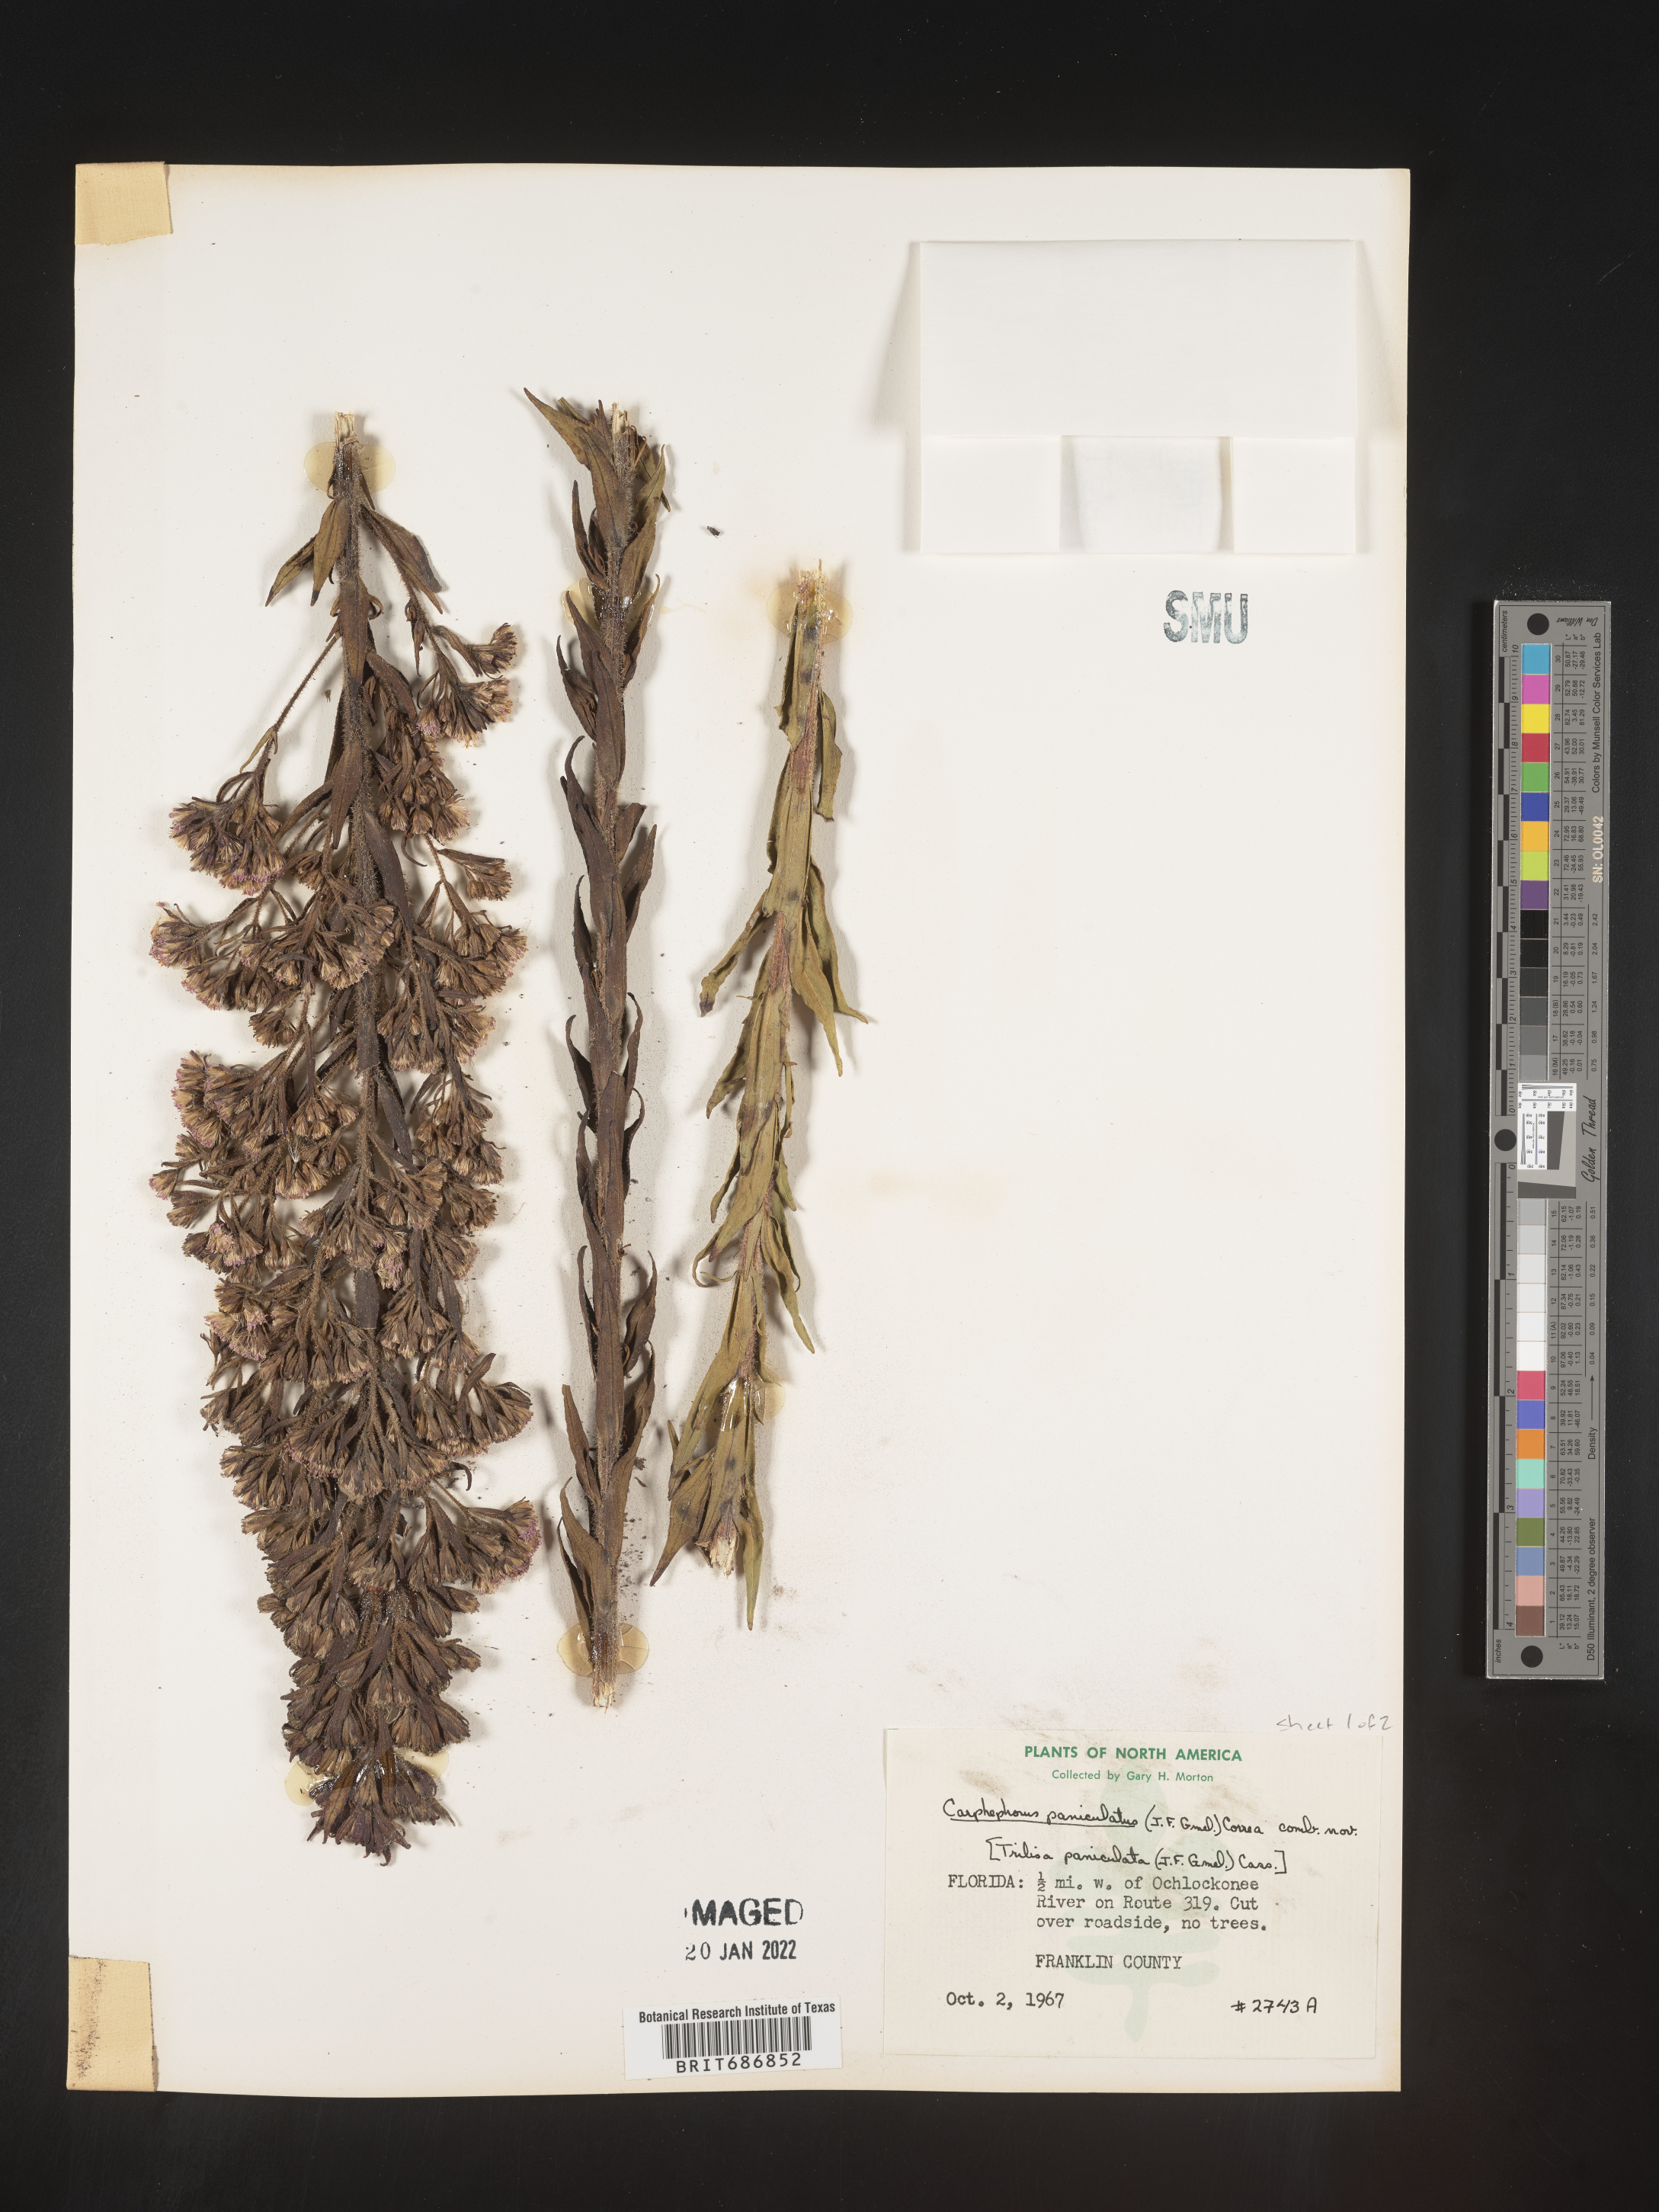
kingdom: Plantae
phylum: Tracheophyta
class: Magnoliopsida
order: Asterales
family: Asteraceae
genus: Carphephorus
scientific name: Carphephorus paniculatus
